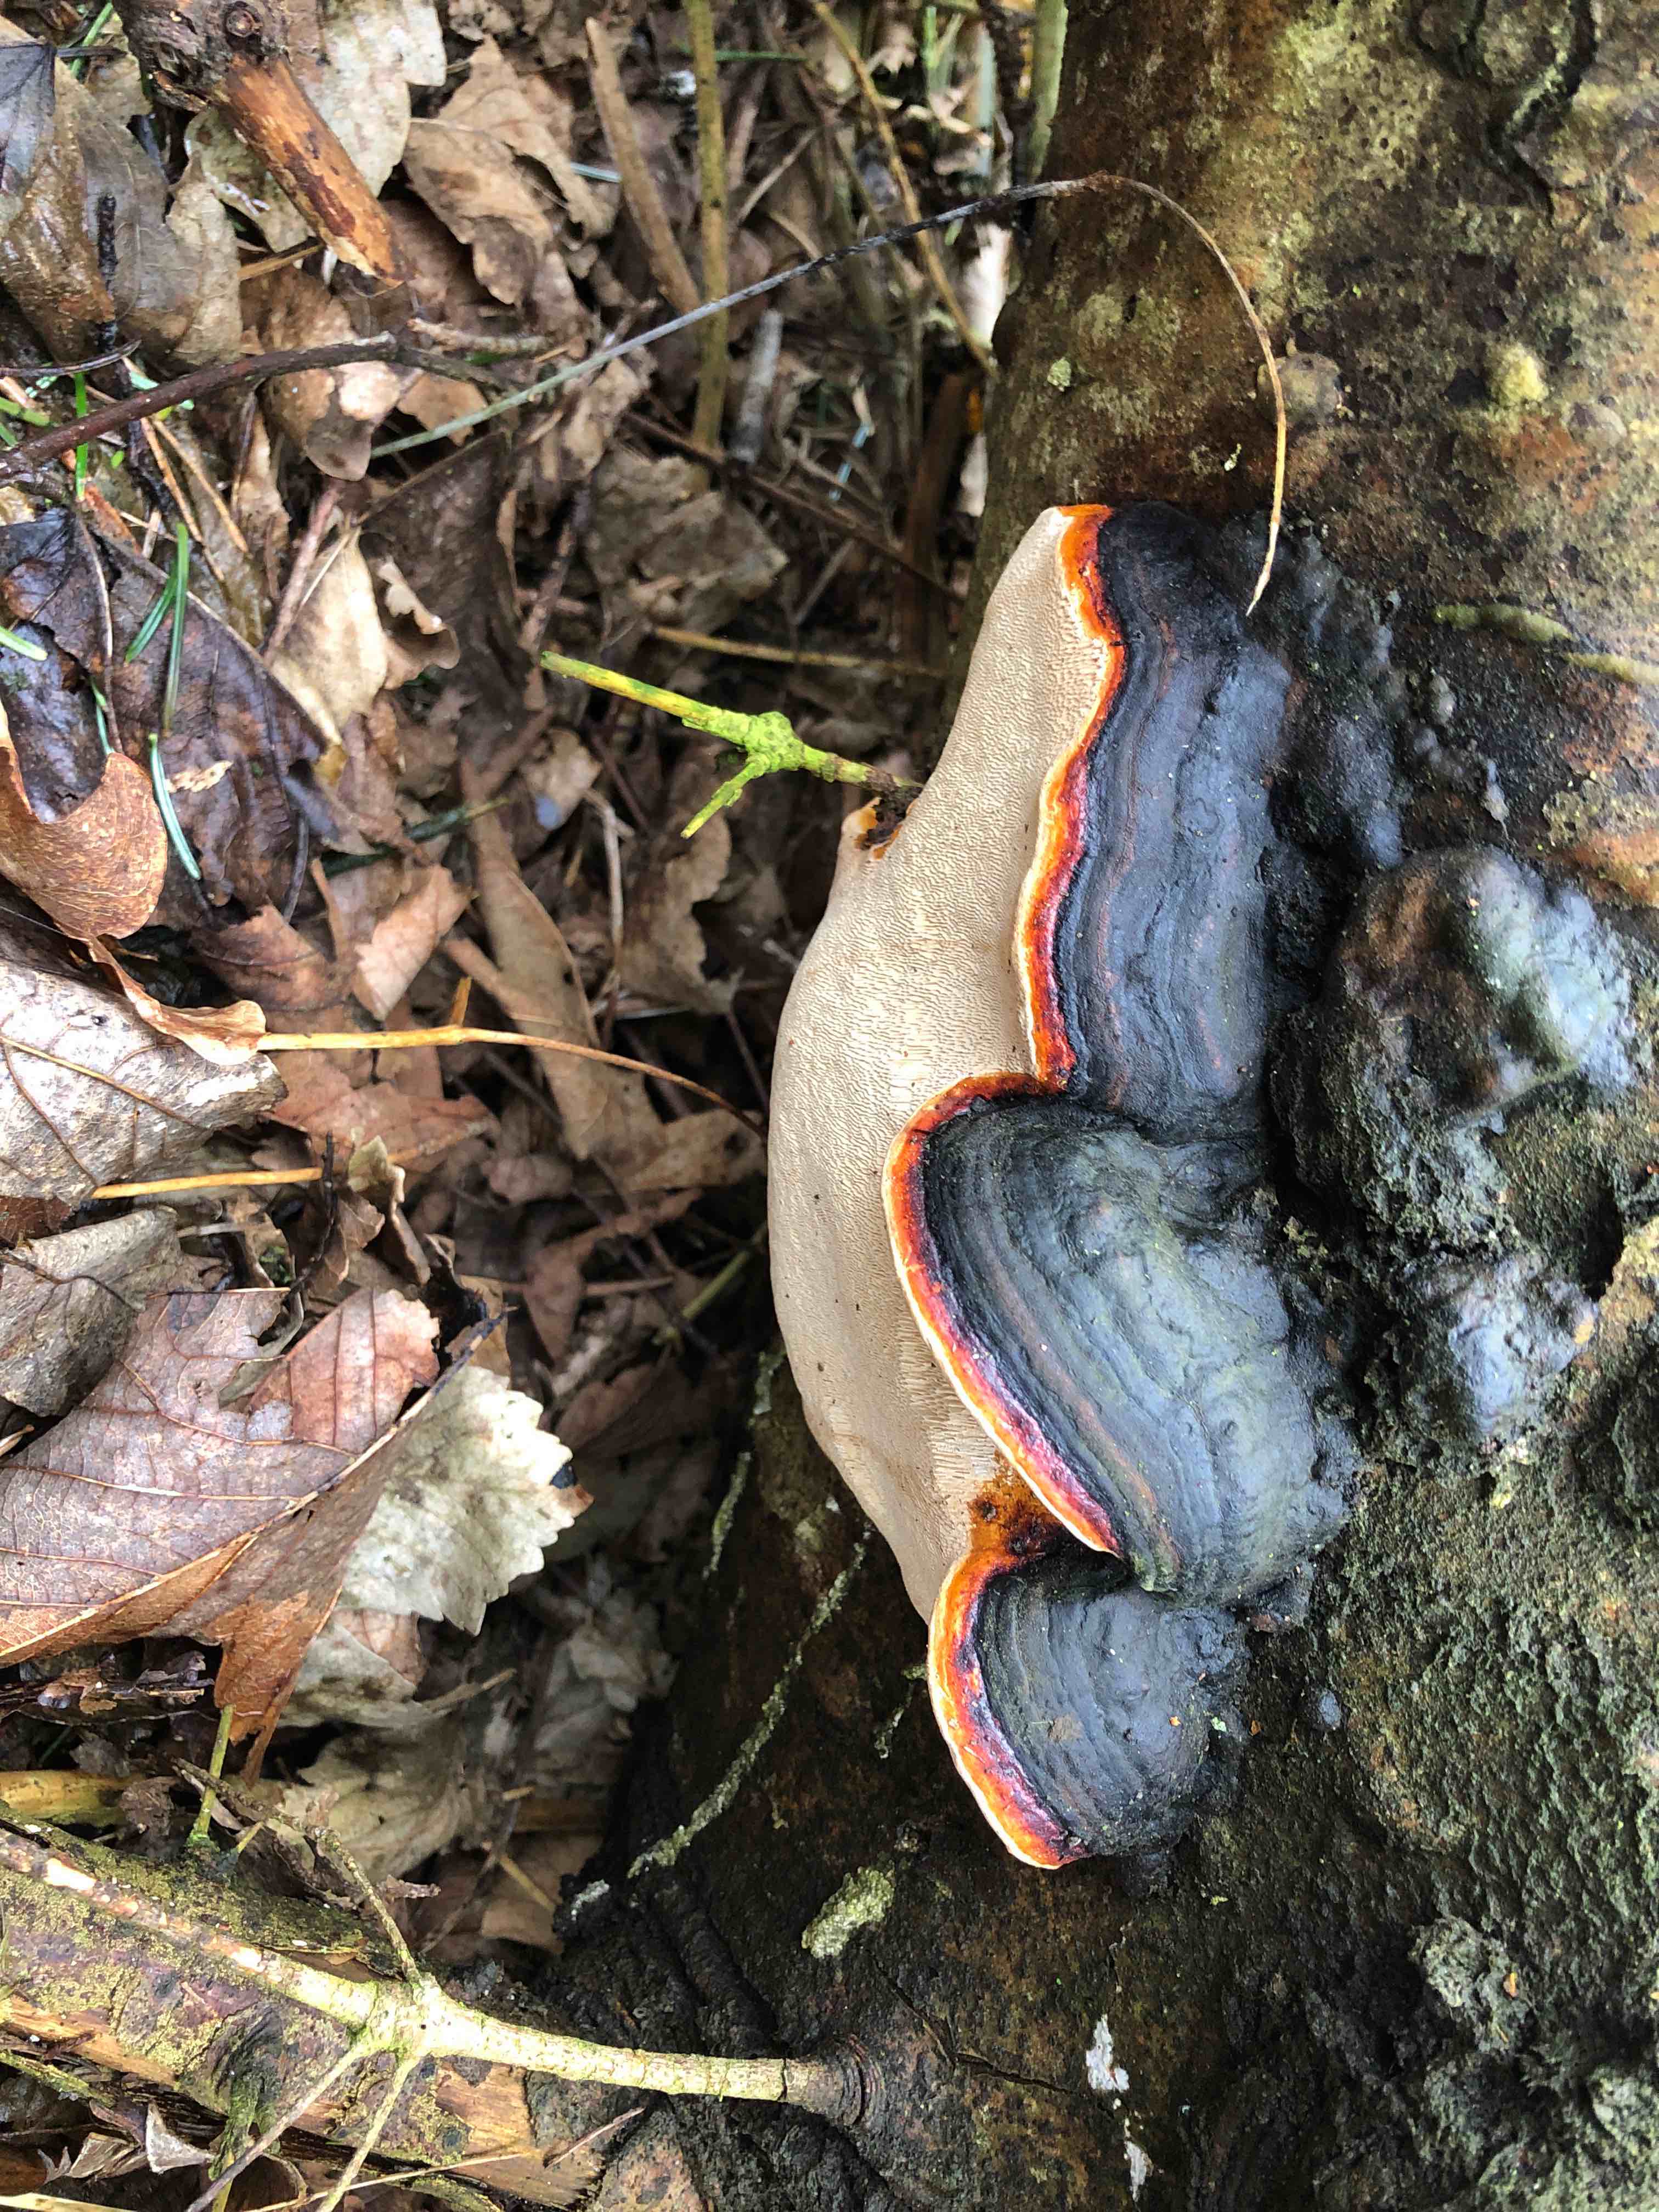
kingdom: Fungi
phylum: Basidiomycota
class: Agaricomycetes
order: Polyporales
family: Fomitopsidaceae
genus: Fomitopsis
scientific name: Fomitopsis pinicola
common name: randbæltet hovporesvamp
